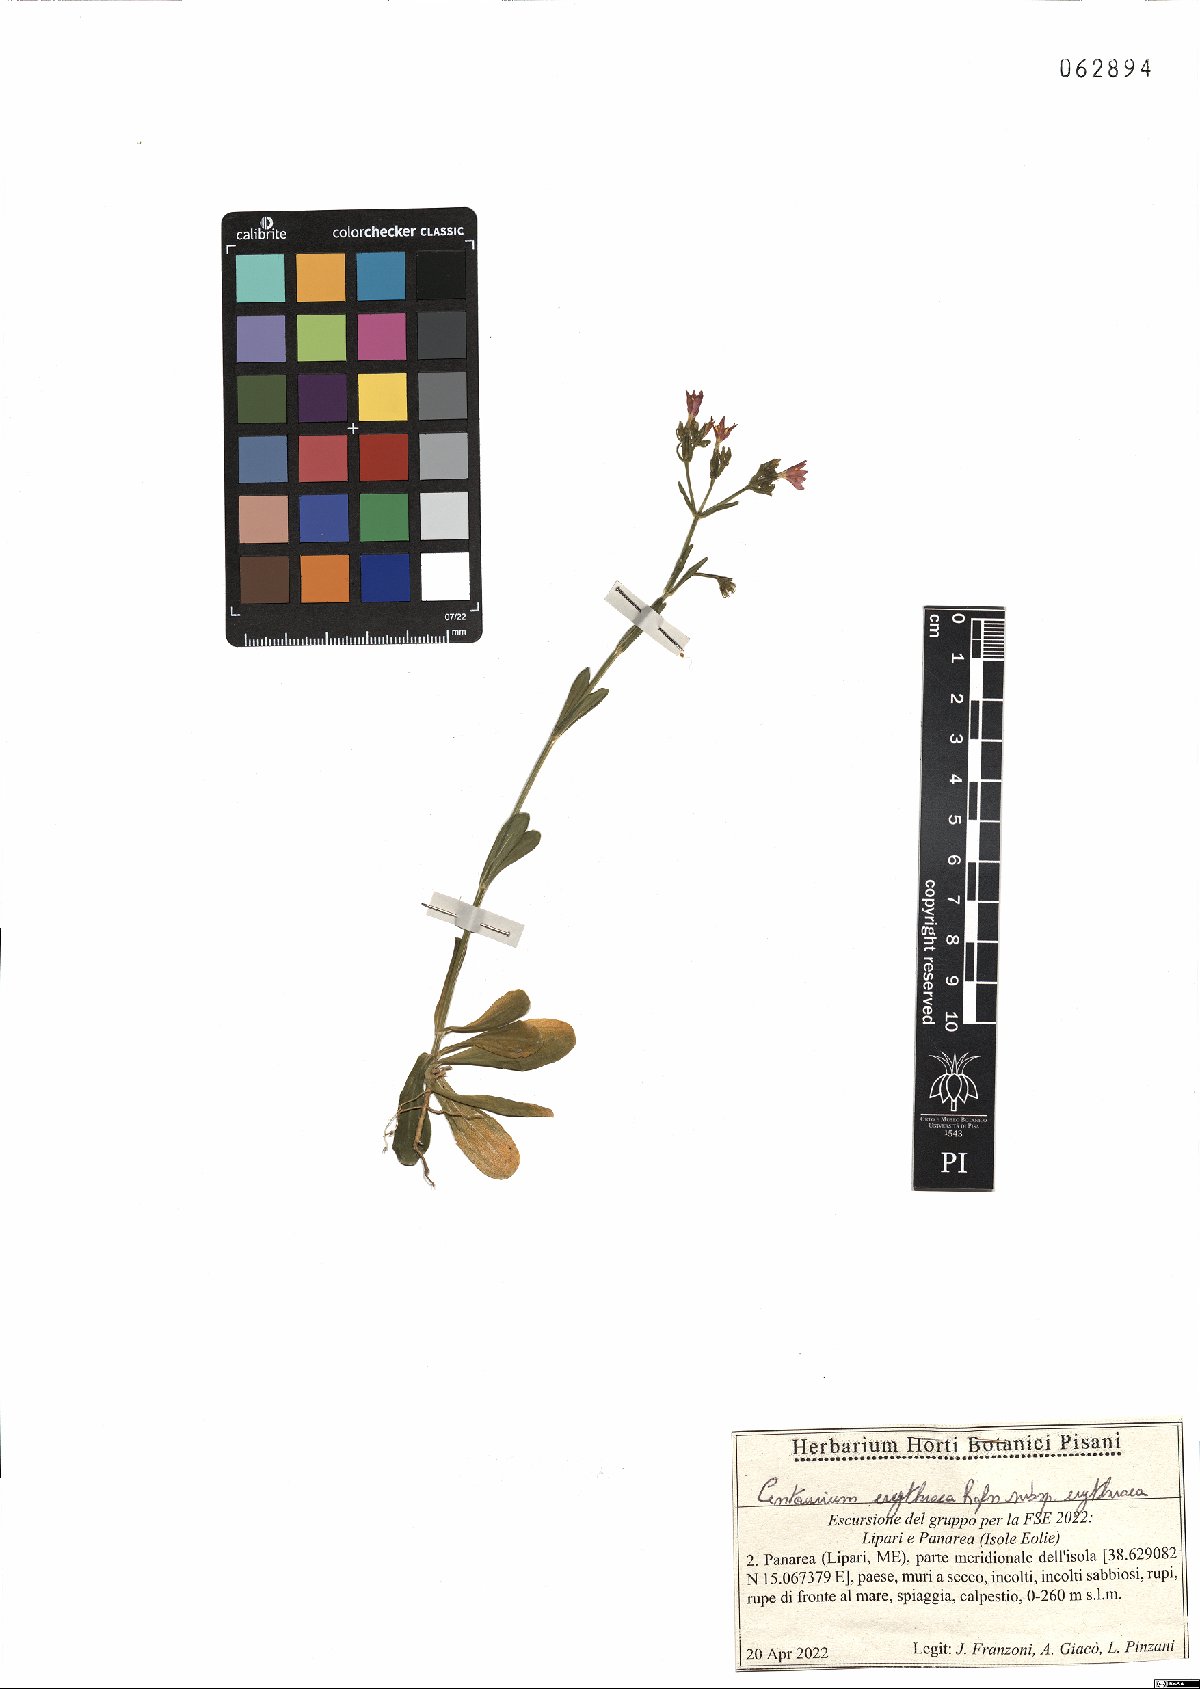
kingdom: Plantae
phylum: Tracheophyta
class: Magnoliopsida
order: Gentianales
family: Gentianaceae
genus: Centaurium
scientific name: Centaurium erythraea
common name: Common centaury
